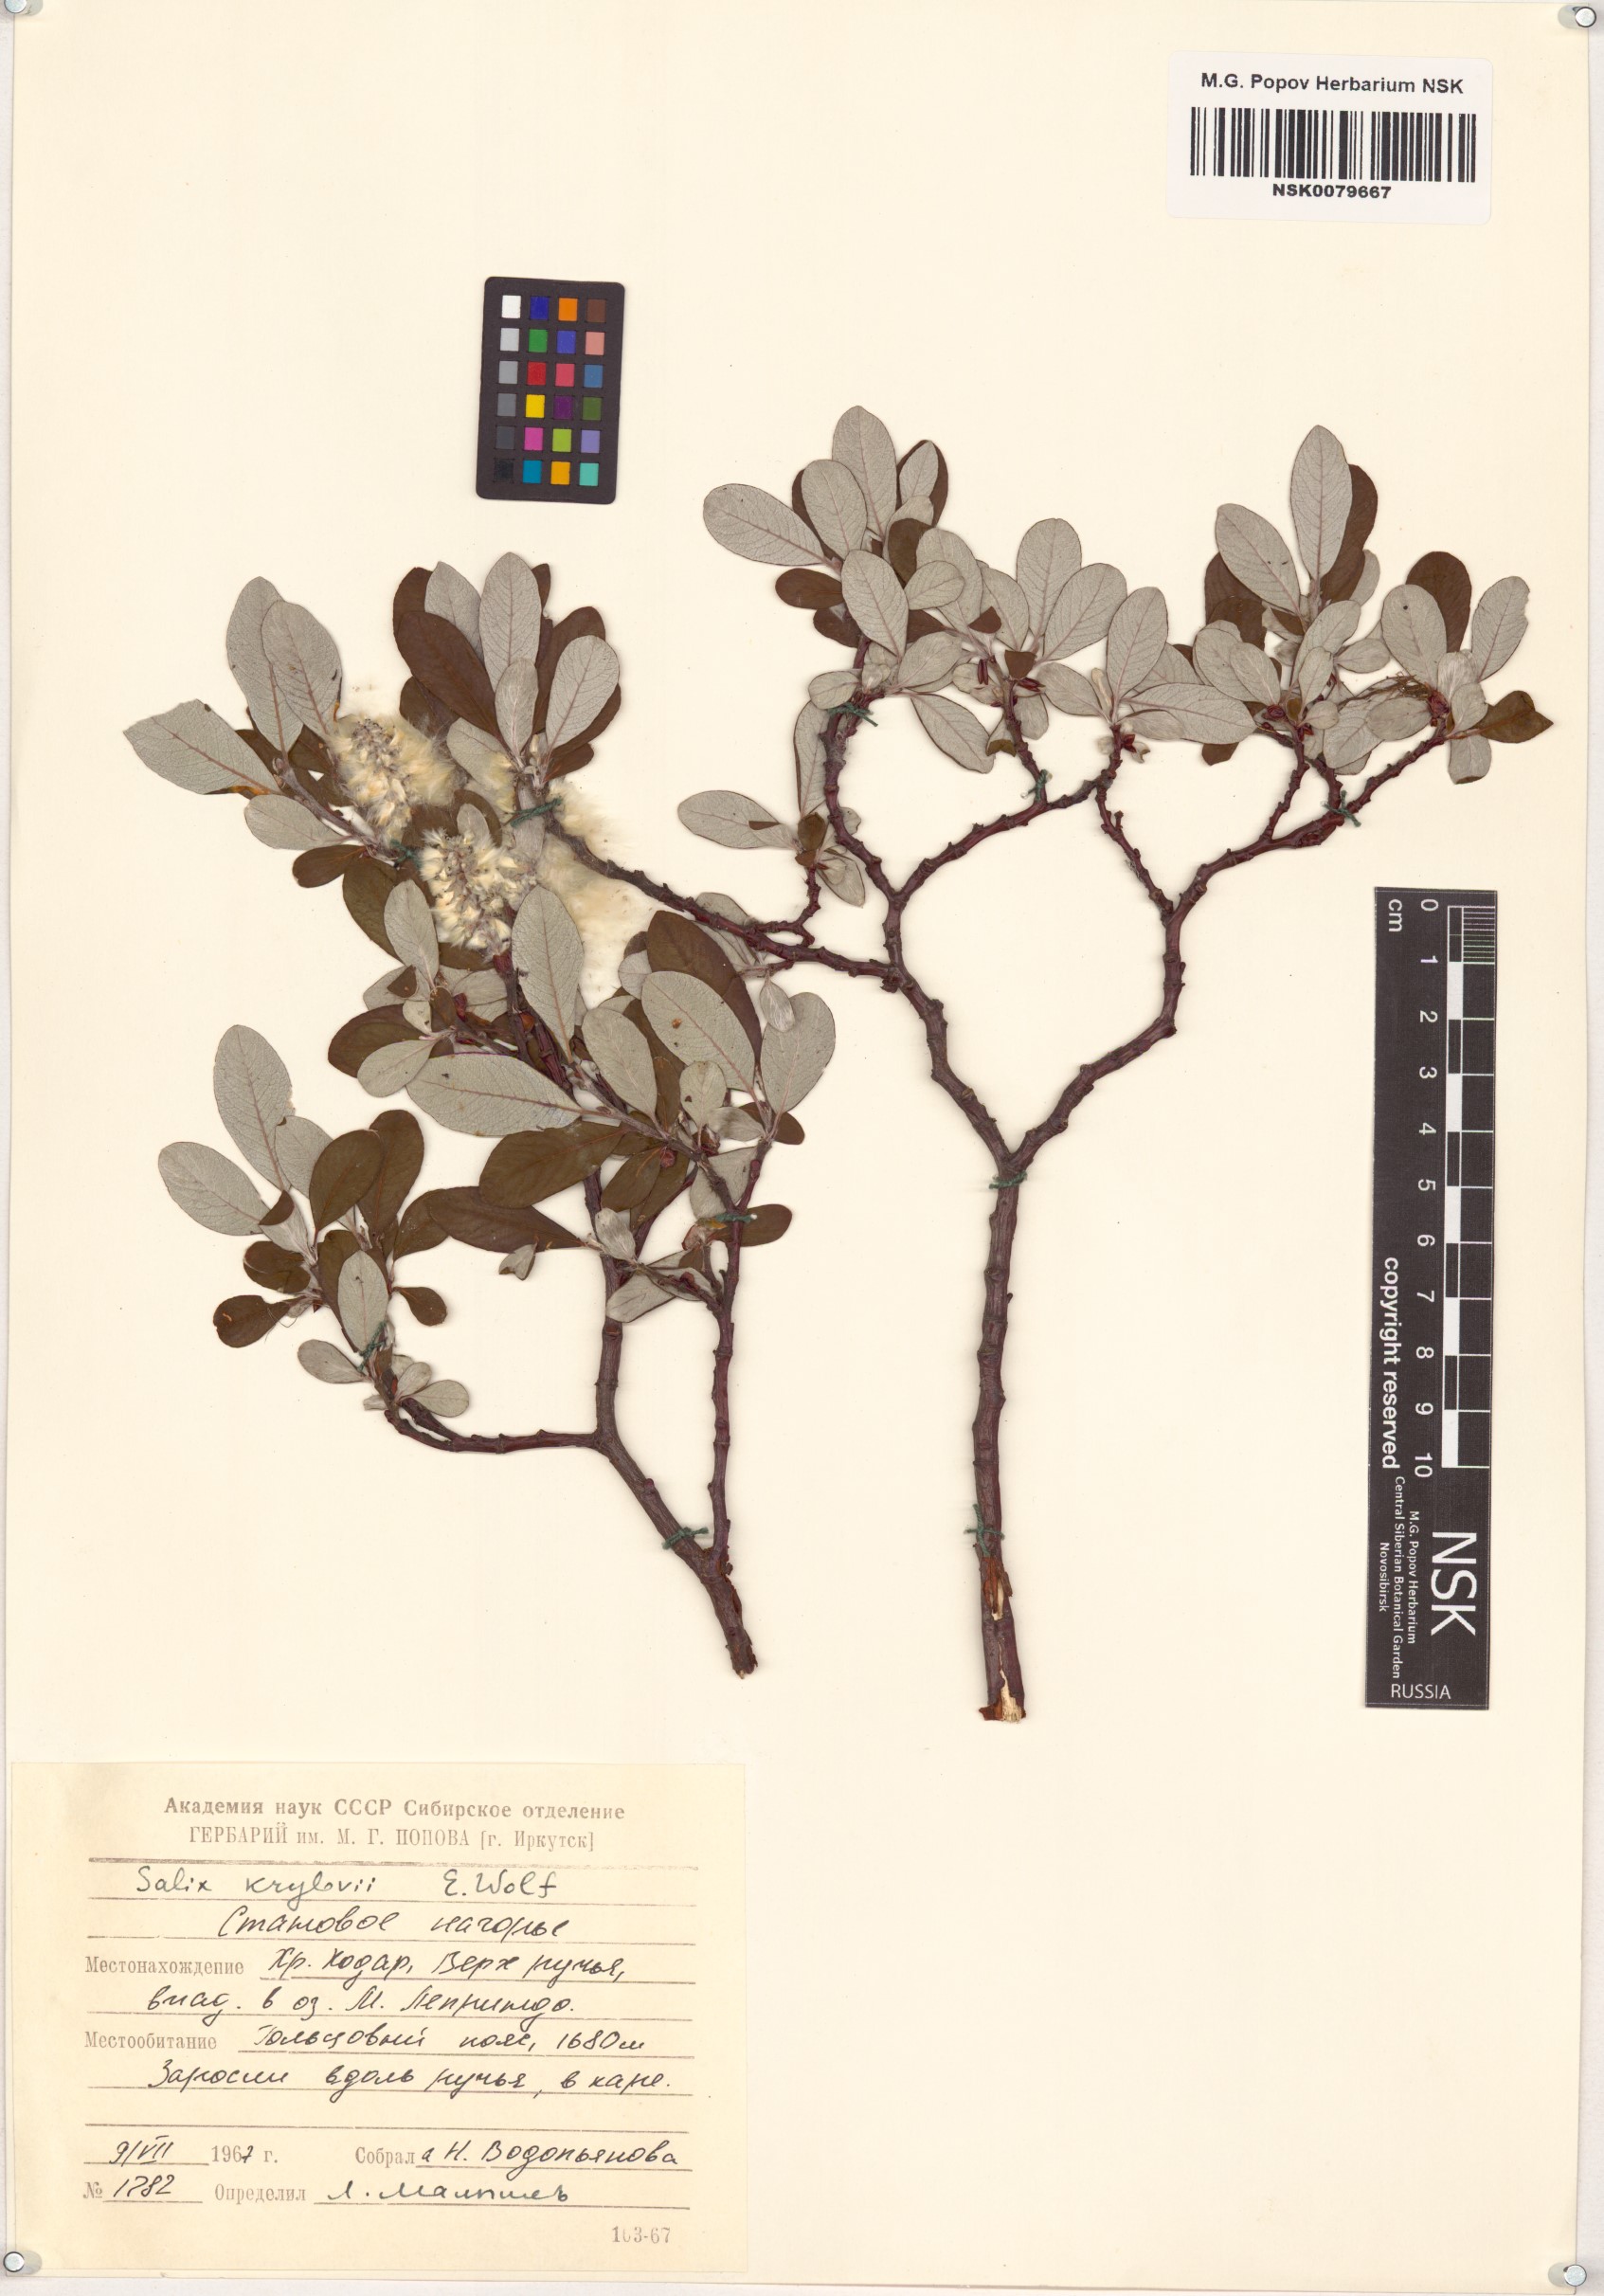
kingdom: Plantae
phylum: Tracheophyta
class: Magnoliopsida
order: Malpighiales
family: Salicaceae
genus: Salix
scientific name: Salix krylovii
